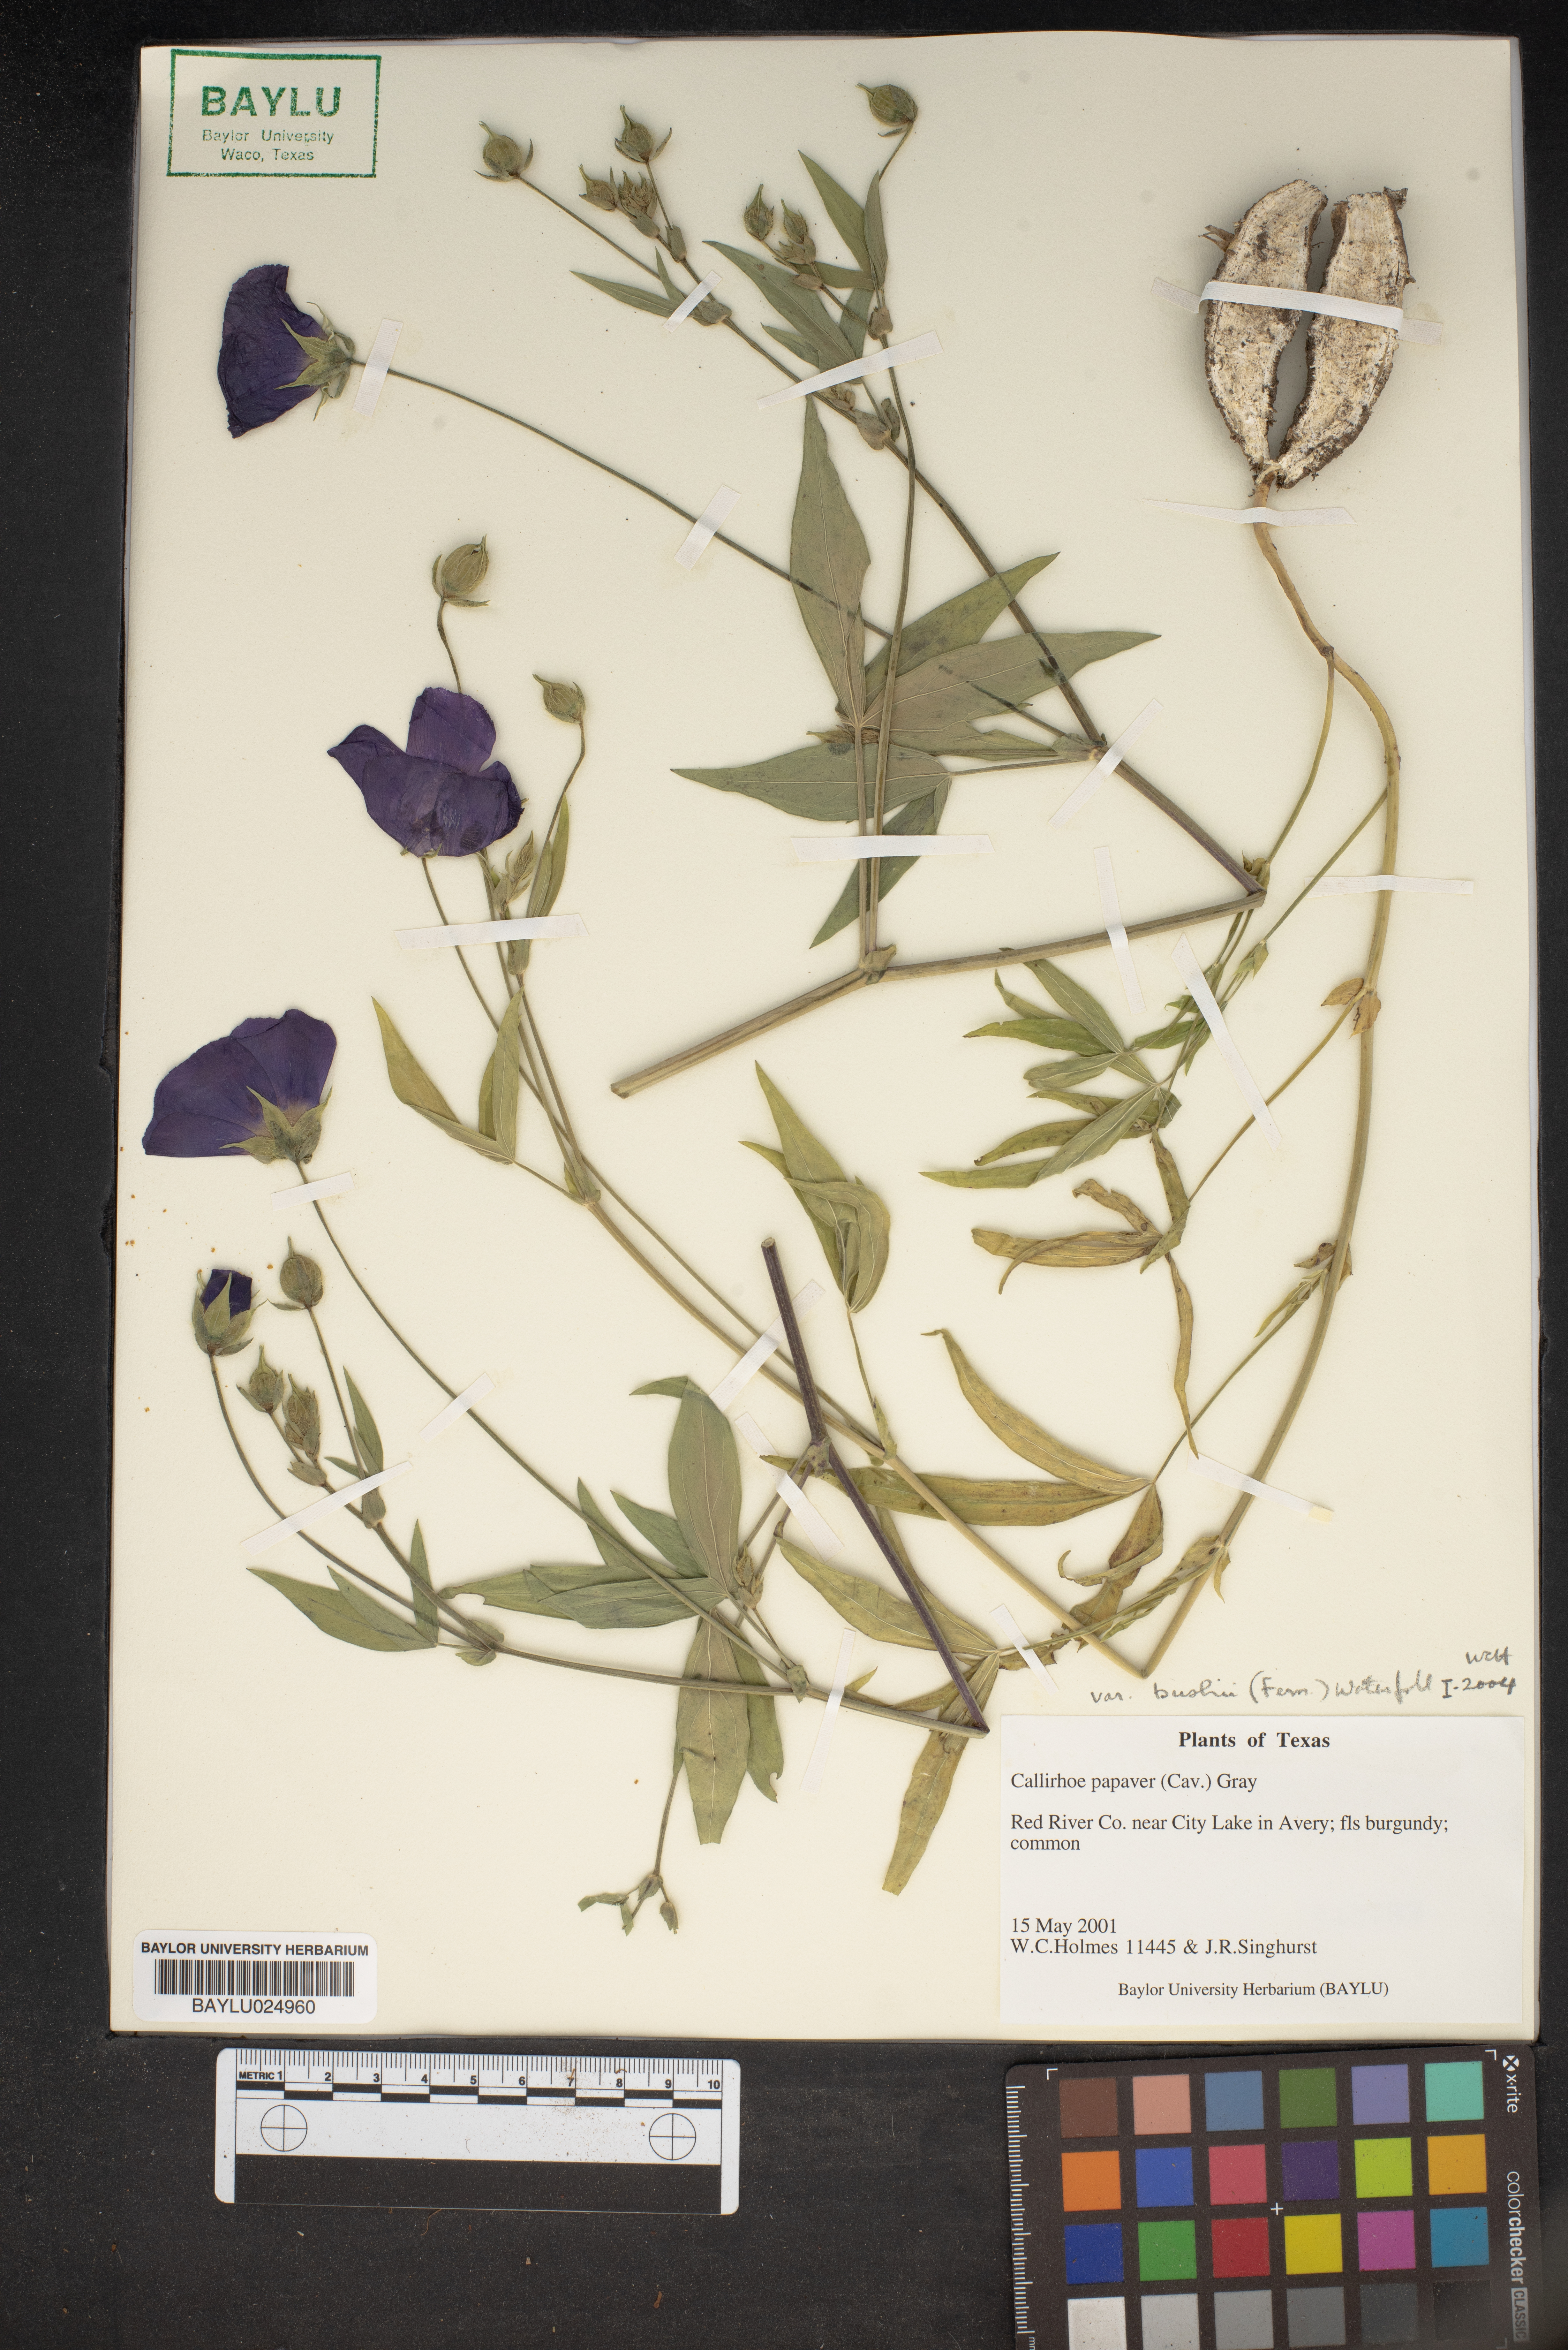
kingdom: Plantae
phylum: Tracheophyta
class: Magnoliopsida
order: Malvales
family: Malvaceae
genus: Callirhoe
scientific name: Callirhoe bushii
